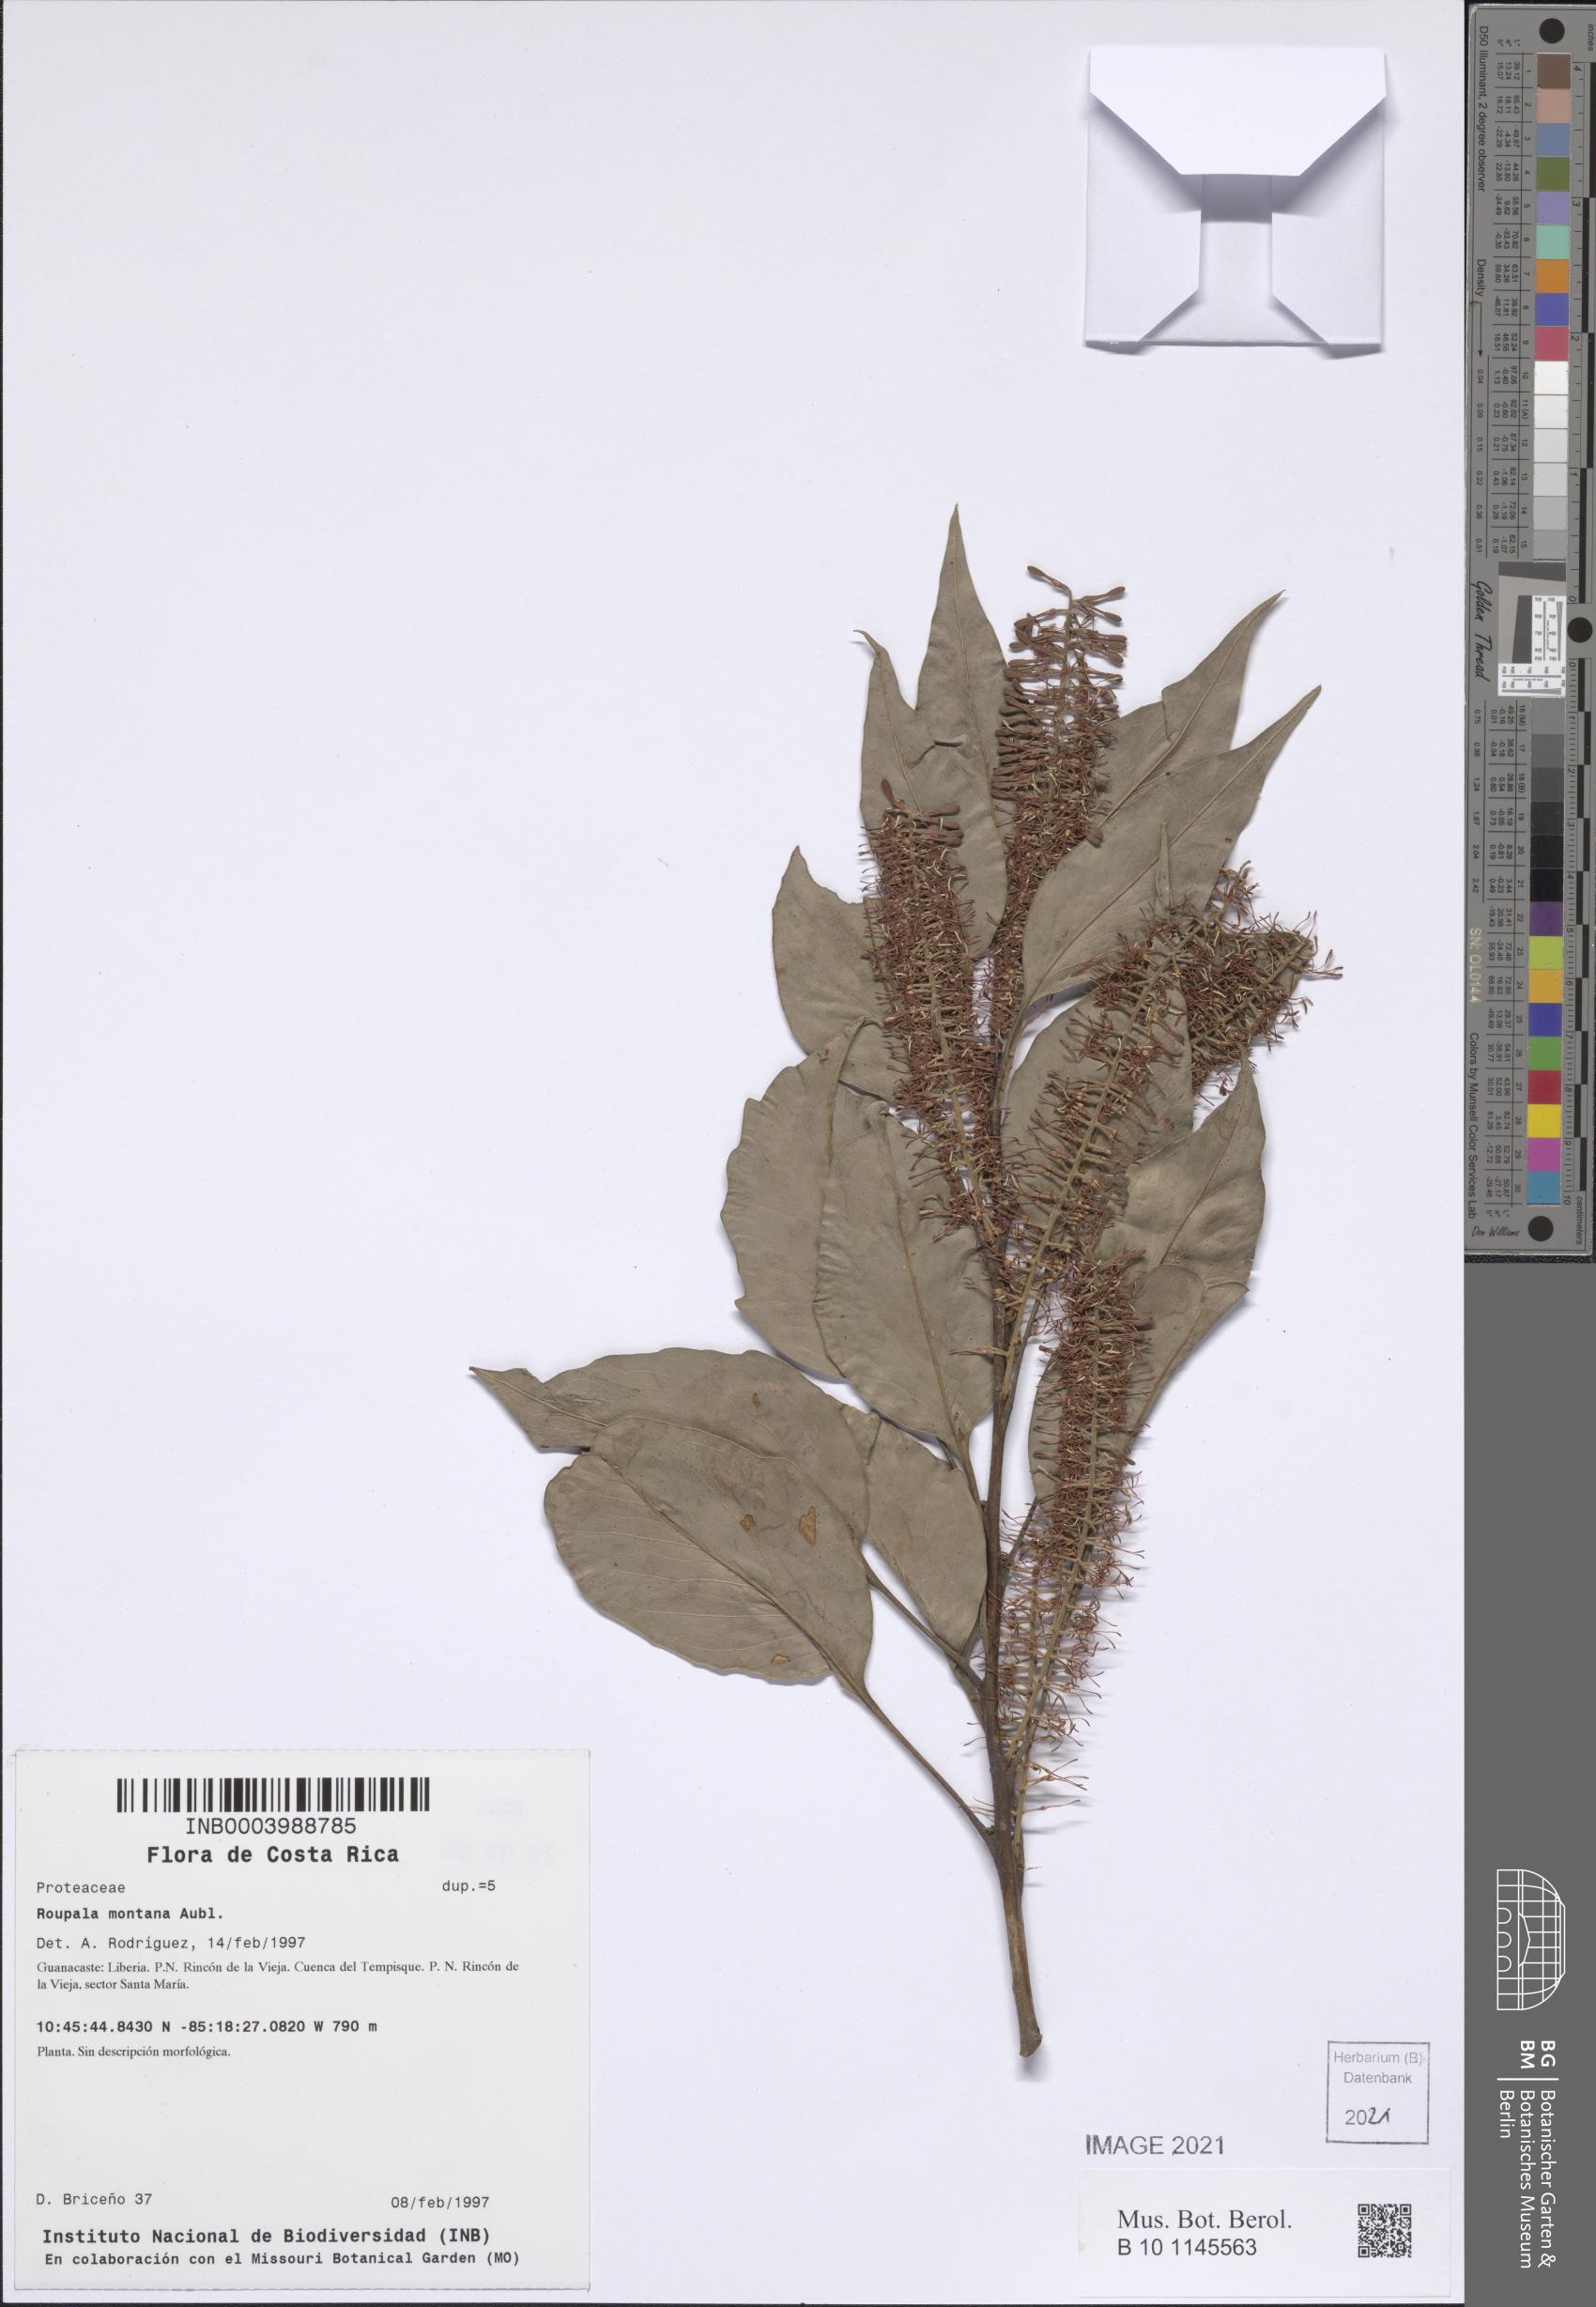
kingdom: Plantae
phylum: Tracheophyta
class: Magnoliopsida
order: Proteales
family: Proteaceae
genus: Roupala
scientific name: Roupala montana
